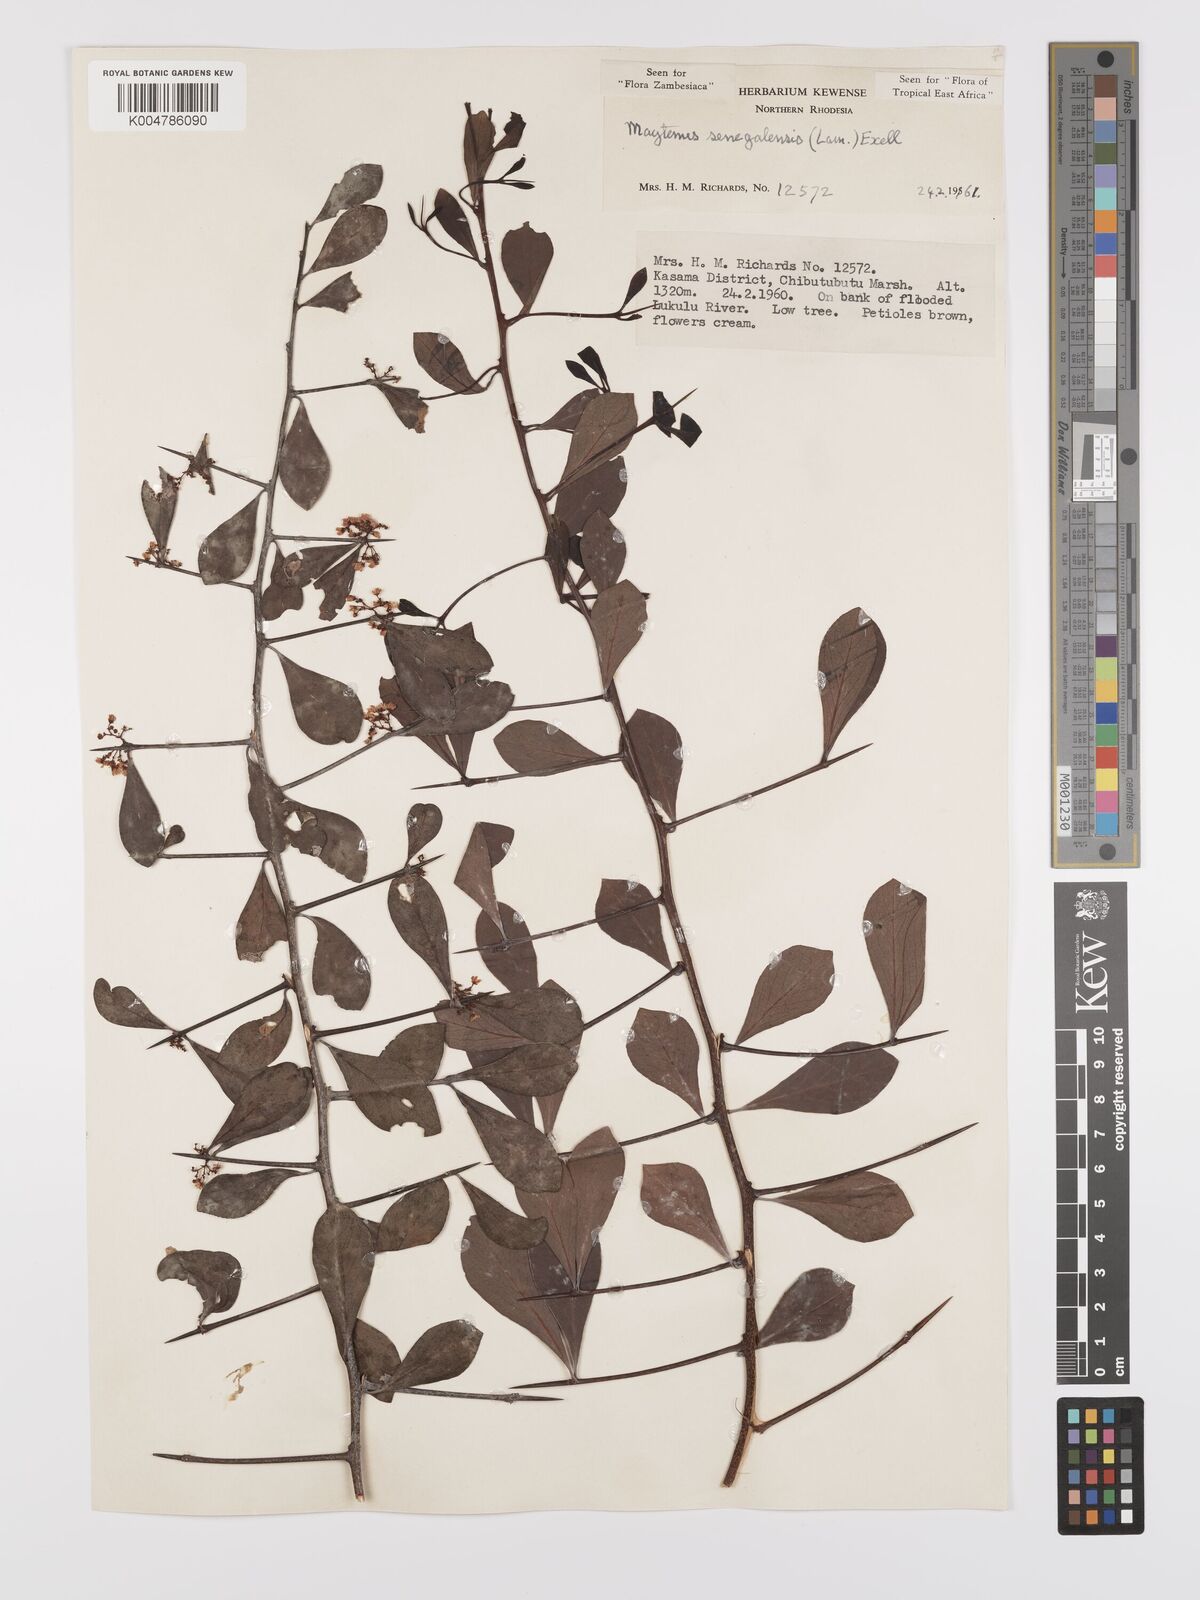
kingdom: Plantae
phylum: Tracheophyta
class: Magnoliopsida
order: Celastrales
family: Celastraceae
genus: Gymnosporia
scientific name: Gymnosporia senegalensis
